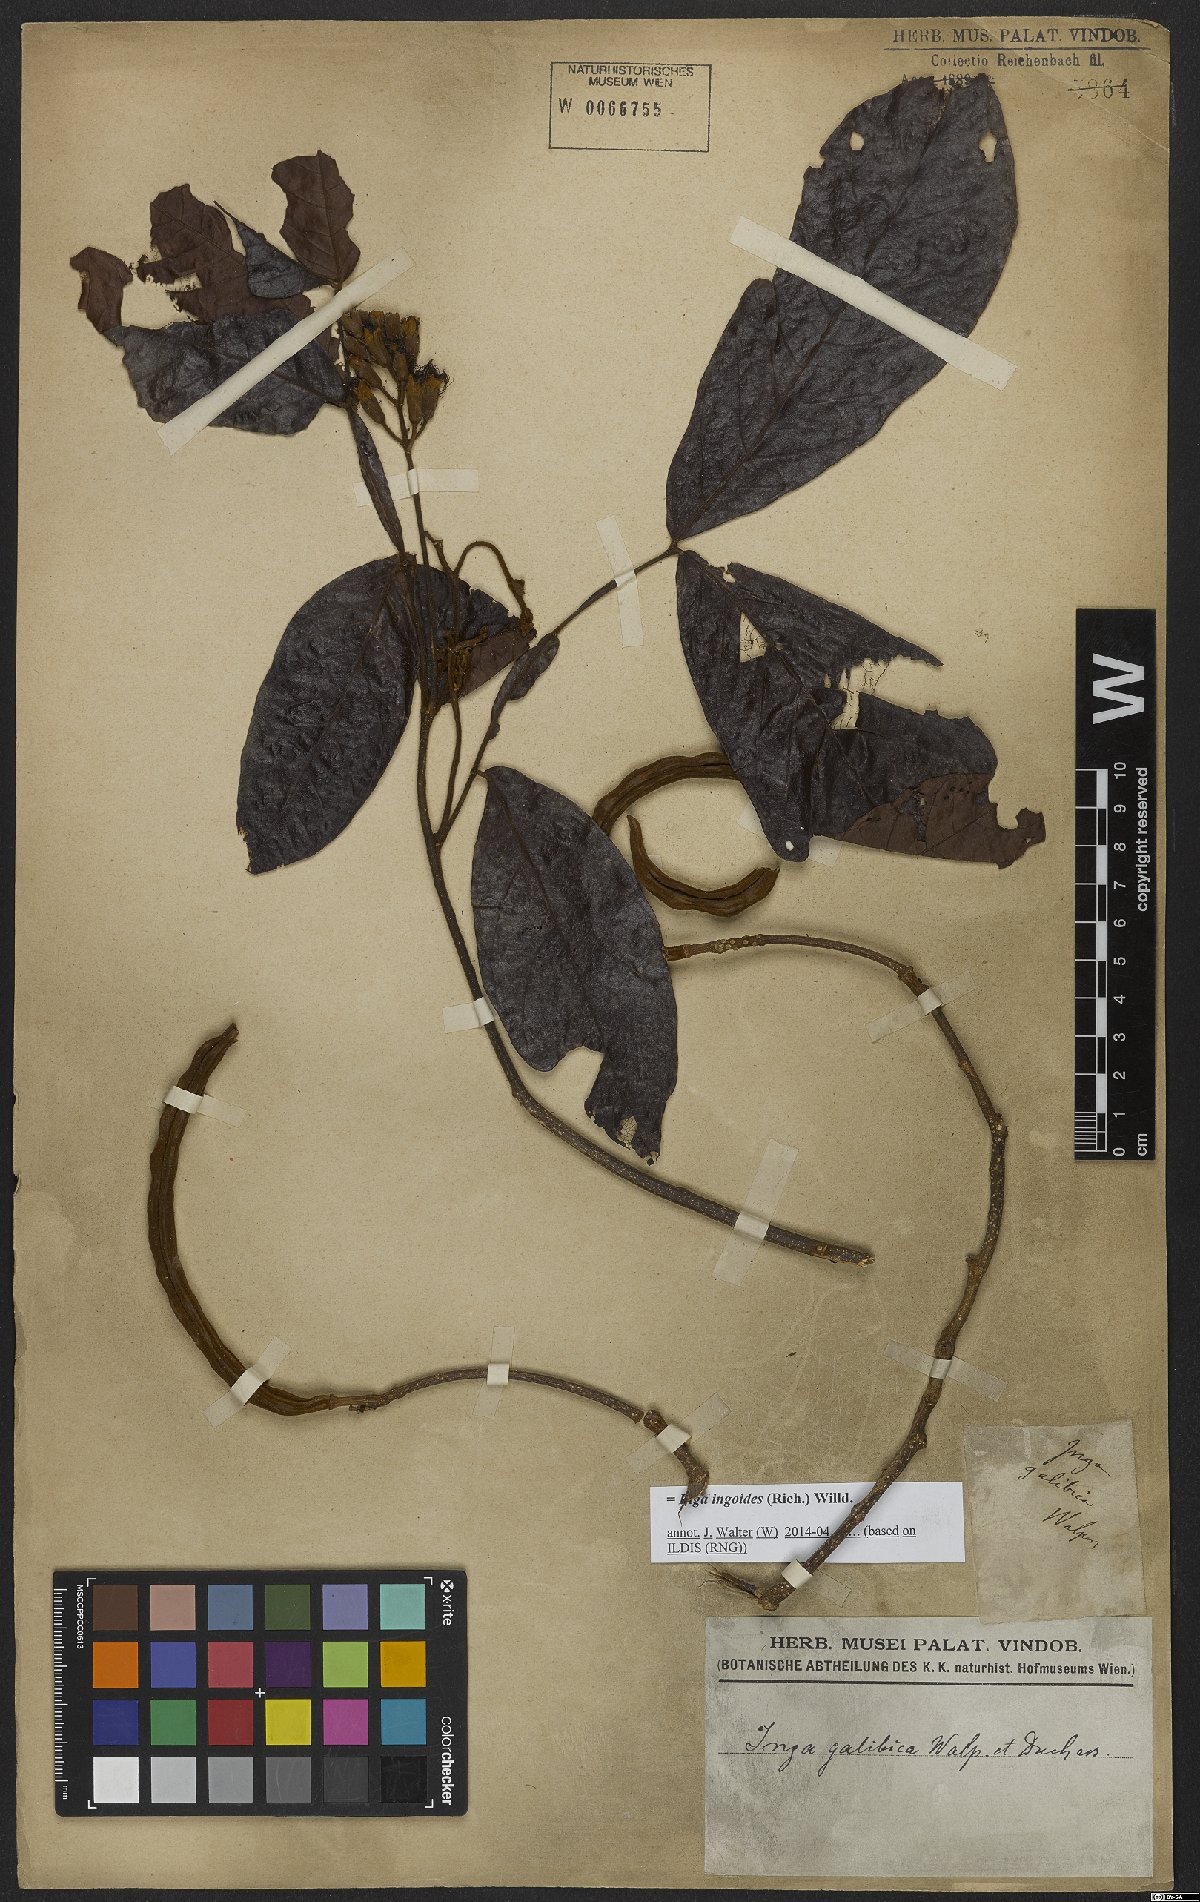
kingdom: Plantae
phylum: Tracheophyta
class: Magnoliopsida
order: Fabales
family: Fabaceae
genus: Inga
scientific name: Inga ingoides
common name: Spanish ash
